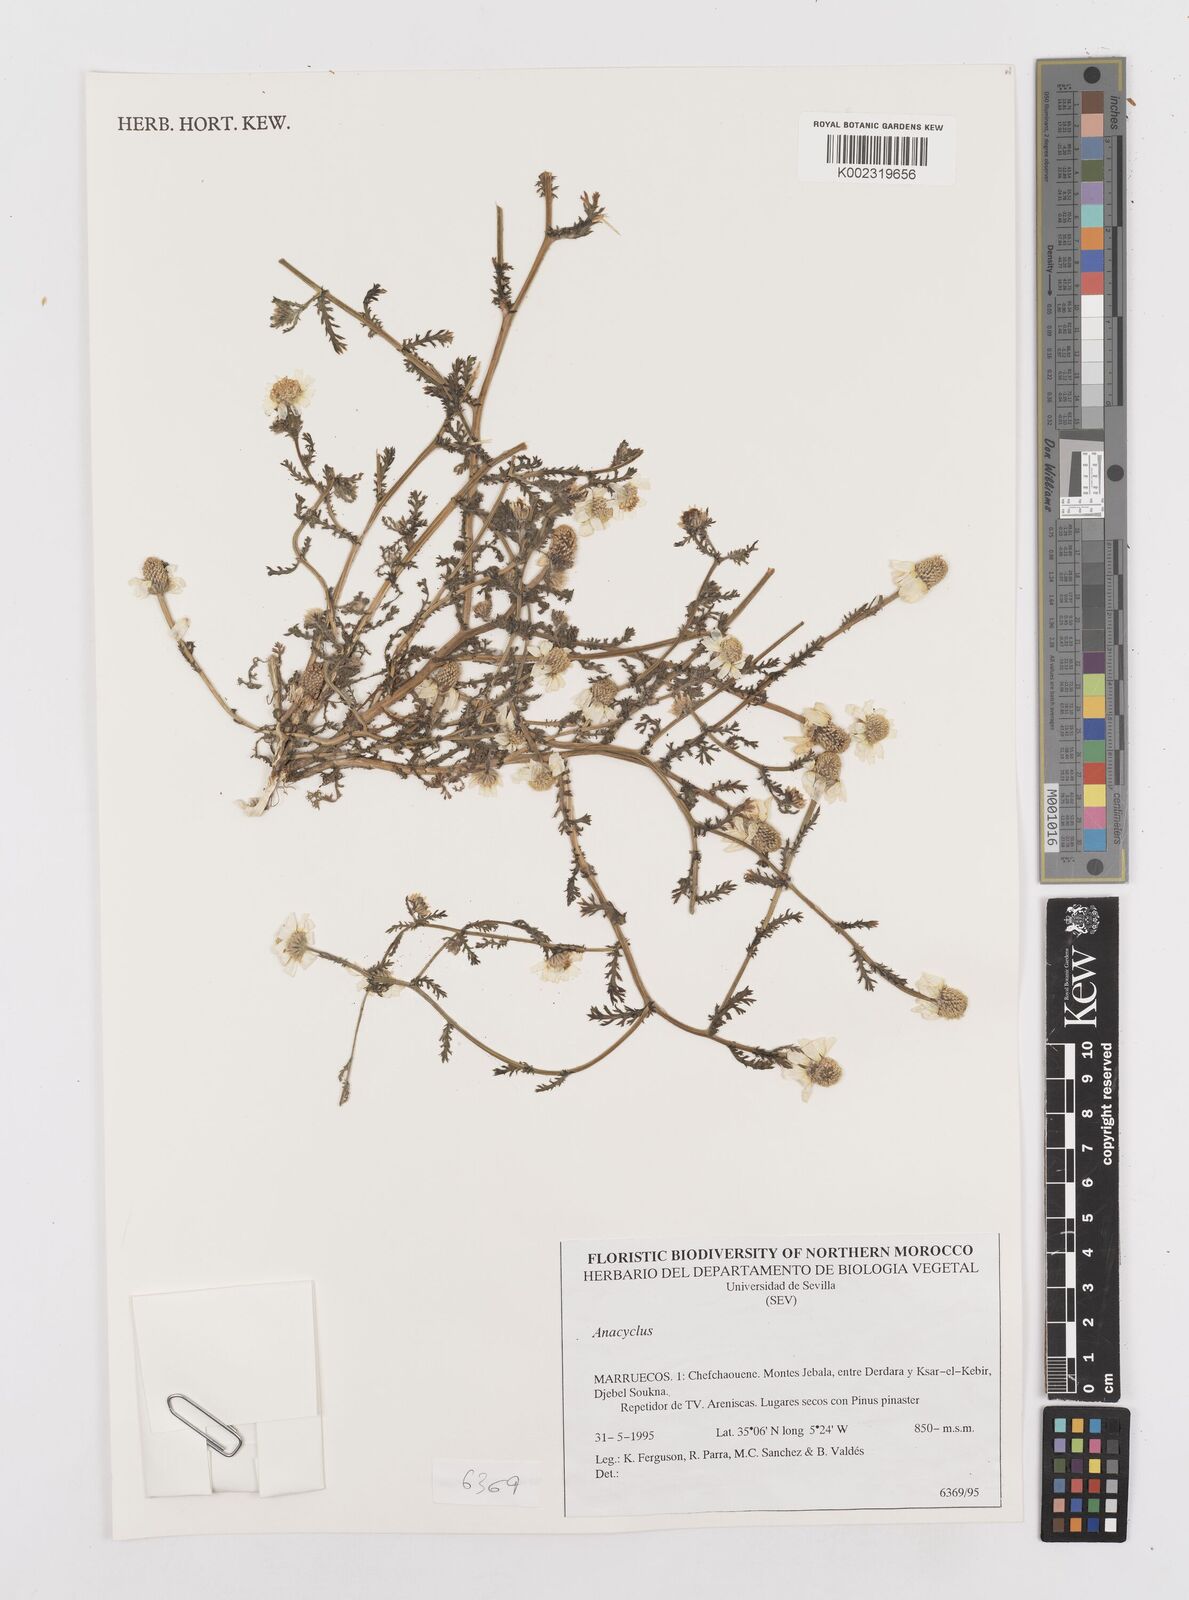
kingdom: Plantae
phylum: Tracheophyta
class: Magnoliopsida
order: Asterales
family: Asteraceae
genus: Anacyclus
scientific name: Anacyclus
